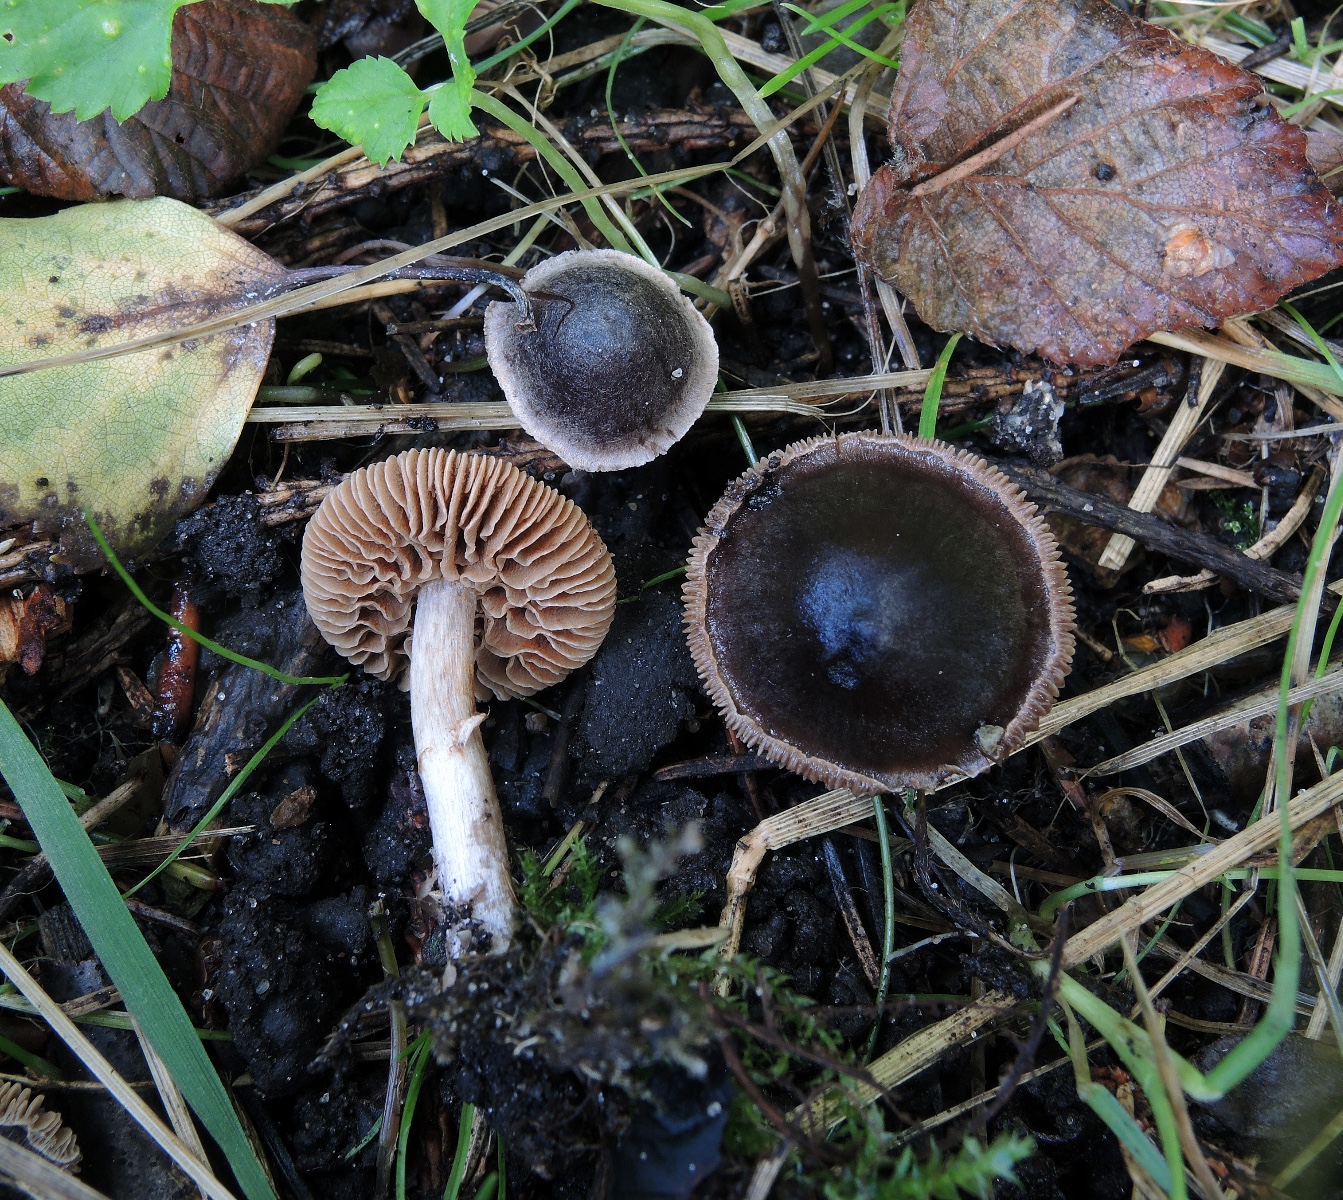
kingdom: Fungi
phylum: Basidiomycota
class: Agaricomycetes
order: Agaricales
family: Cortinariaceae
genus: Cortinarius
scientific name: Cortinarius castaneus
